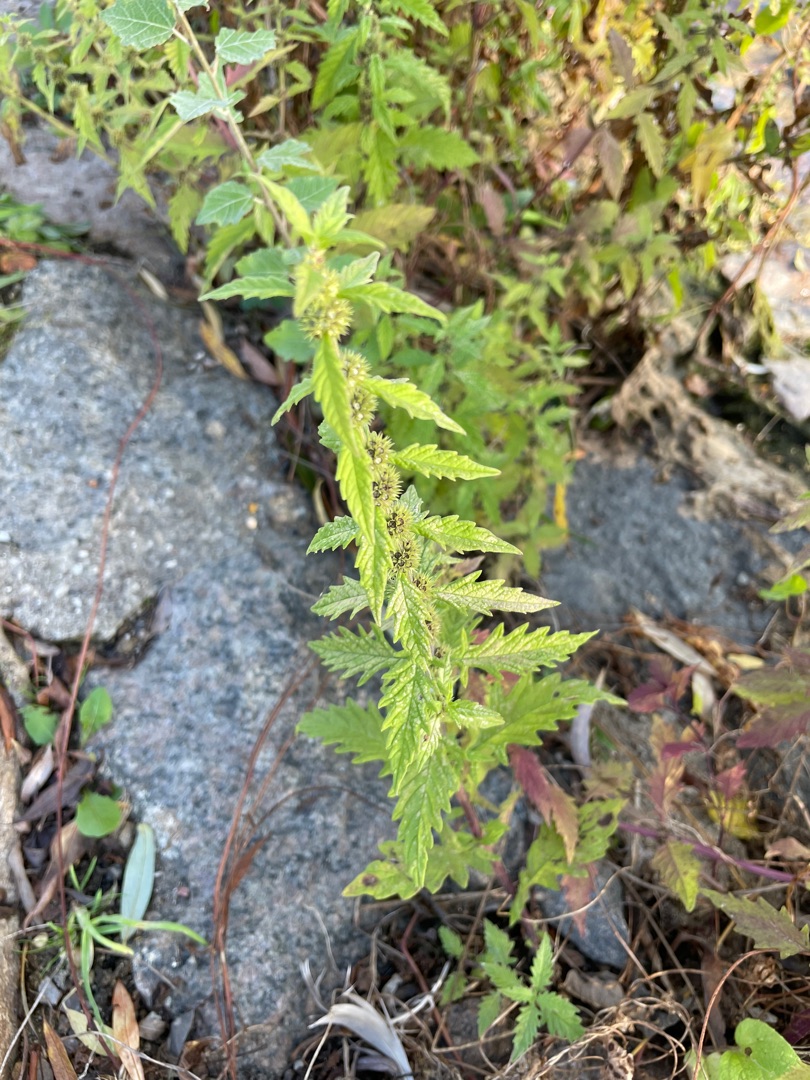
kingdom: Plantae
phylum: Tracheophyta
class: Magnoliopsida
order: Lamiales
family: Lamiaceae
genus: Lycopus
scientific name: Lycopus europaeus
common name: Sværtevæld
